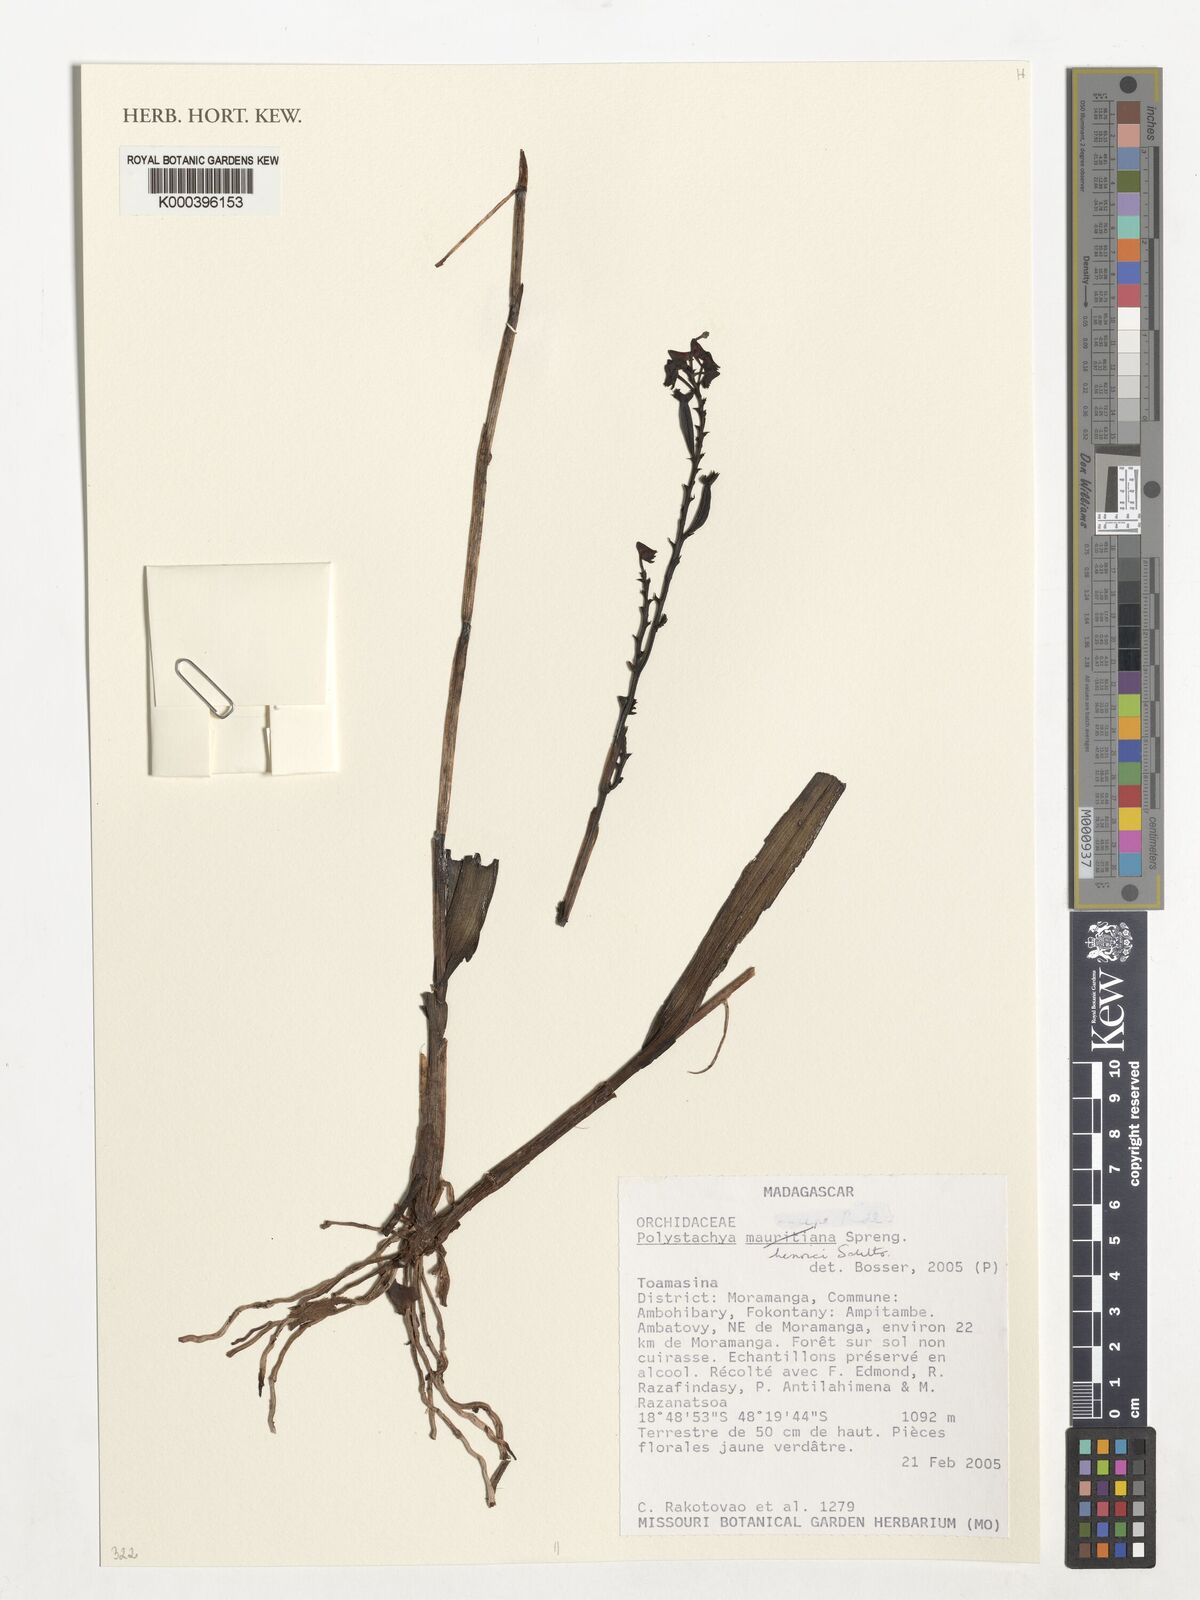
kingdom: Plantae
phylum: Tracheophyta
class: Liliopsida
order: Asparagales
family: Orchidaceae
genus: Polystachya
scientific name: Polystachya henrici
